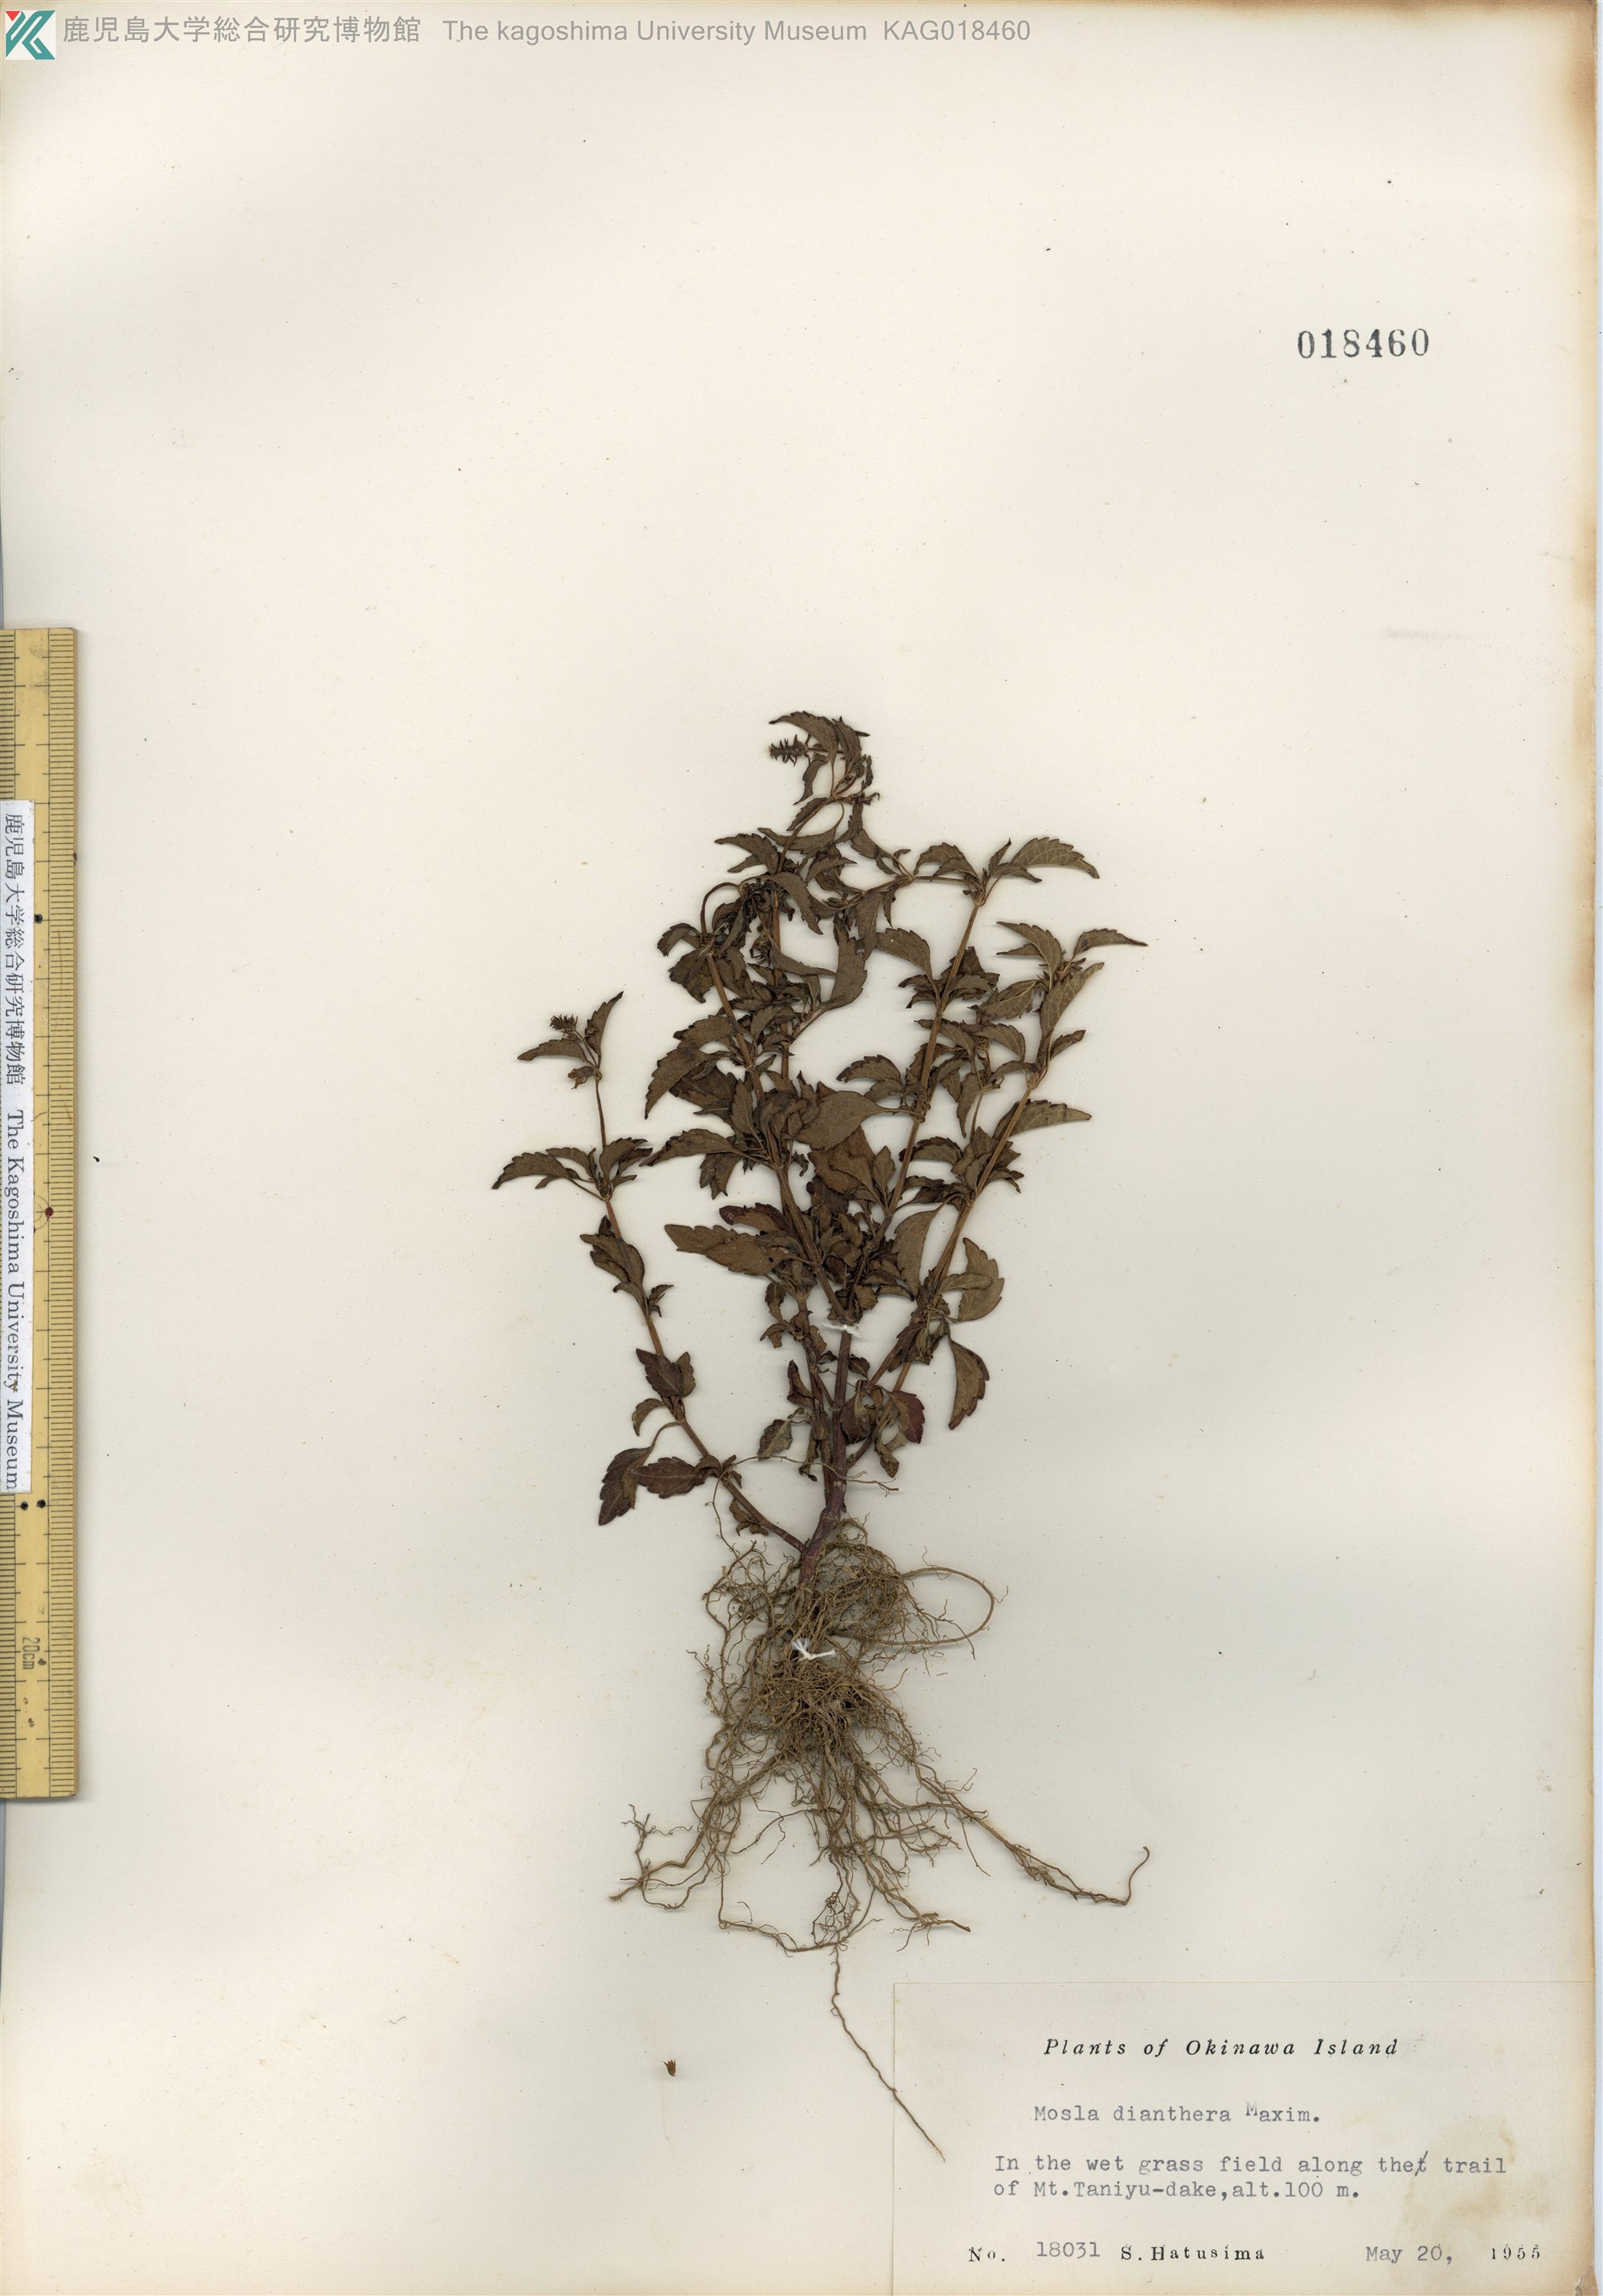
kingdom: Plantae
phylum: Tracheophyta
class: Magnoliopsida
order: Lamiales
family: Lamiaceae
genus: Mosla
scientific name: Mosla dianthera
